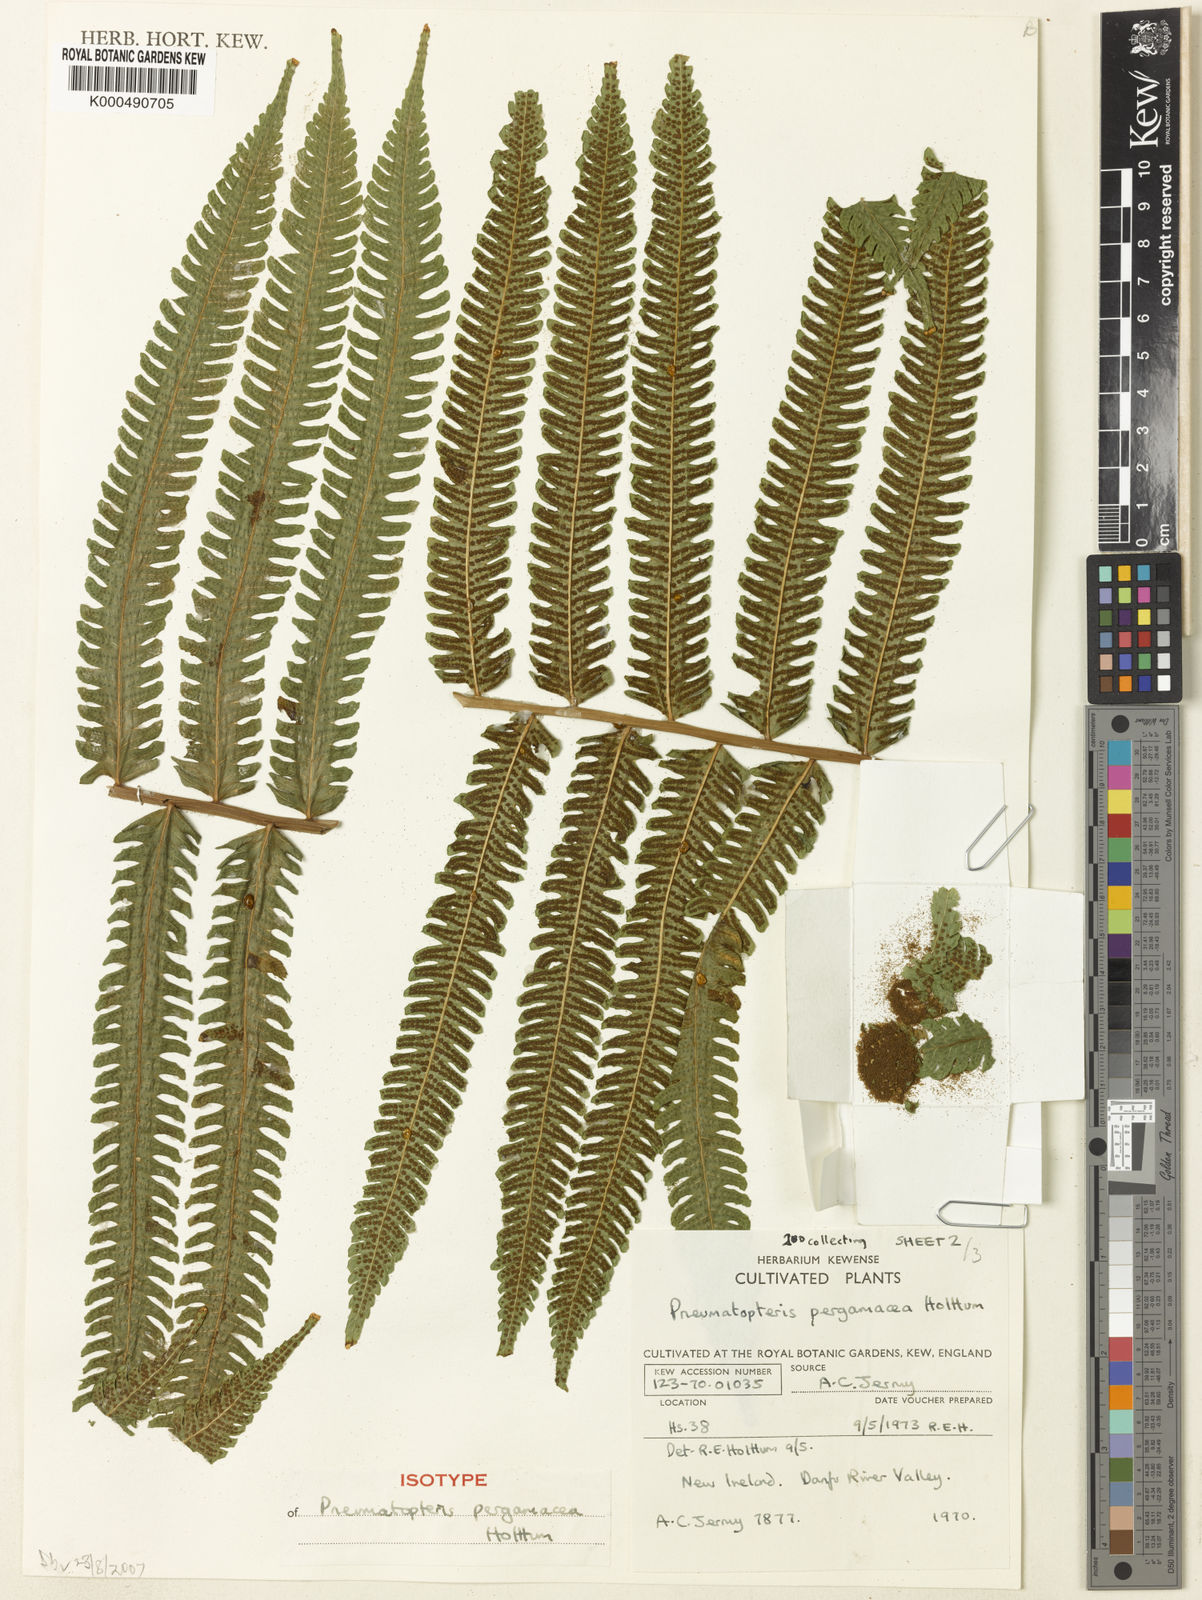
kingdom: Plantae
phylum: Tracheophyta
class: Polypodiopsida
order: Polypodiales
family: Thelypteridaceae
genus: Reholttumia
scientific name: Reholttumia pergamacea
